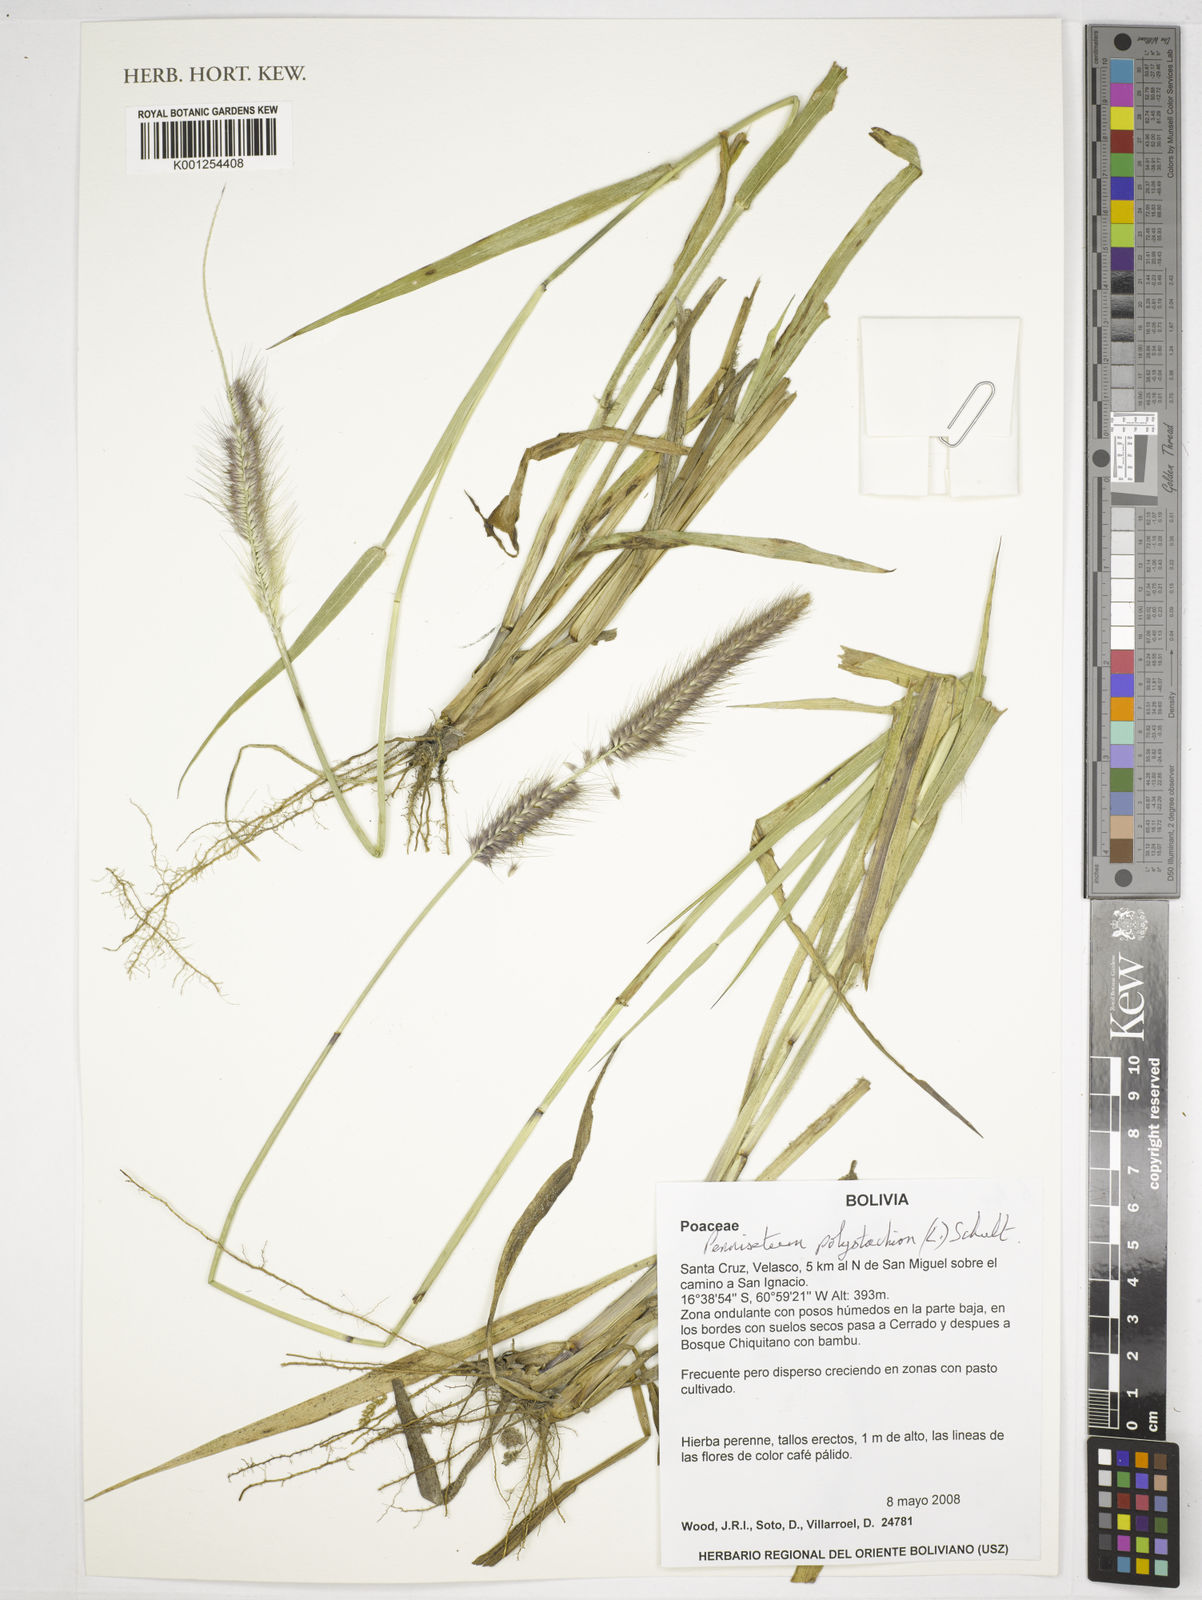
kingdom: Plantae
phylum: Tracheophyta
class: Liliopsida
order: Poales
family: Poaceae
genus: Setaria
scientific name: Setaria parviflora
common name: Knotroot bristle-grass
